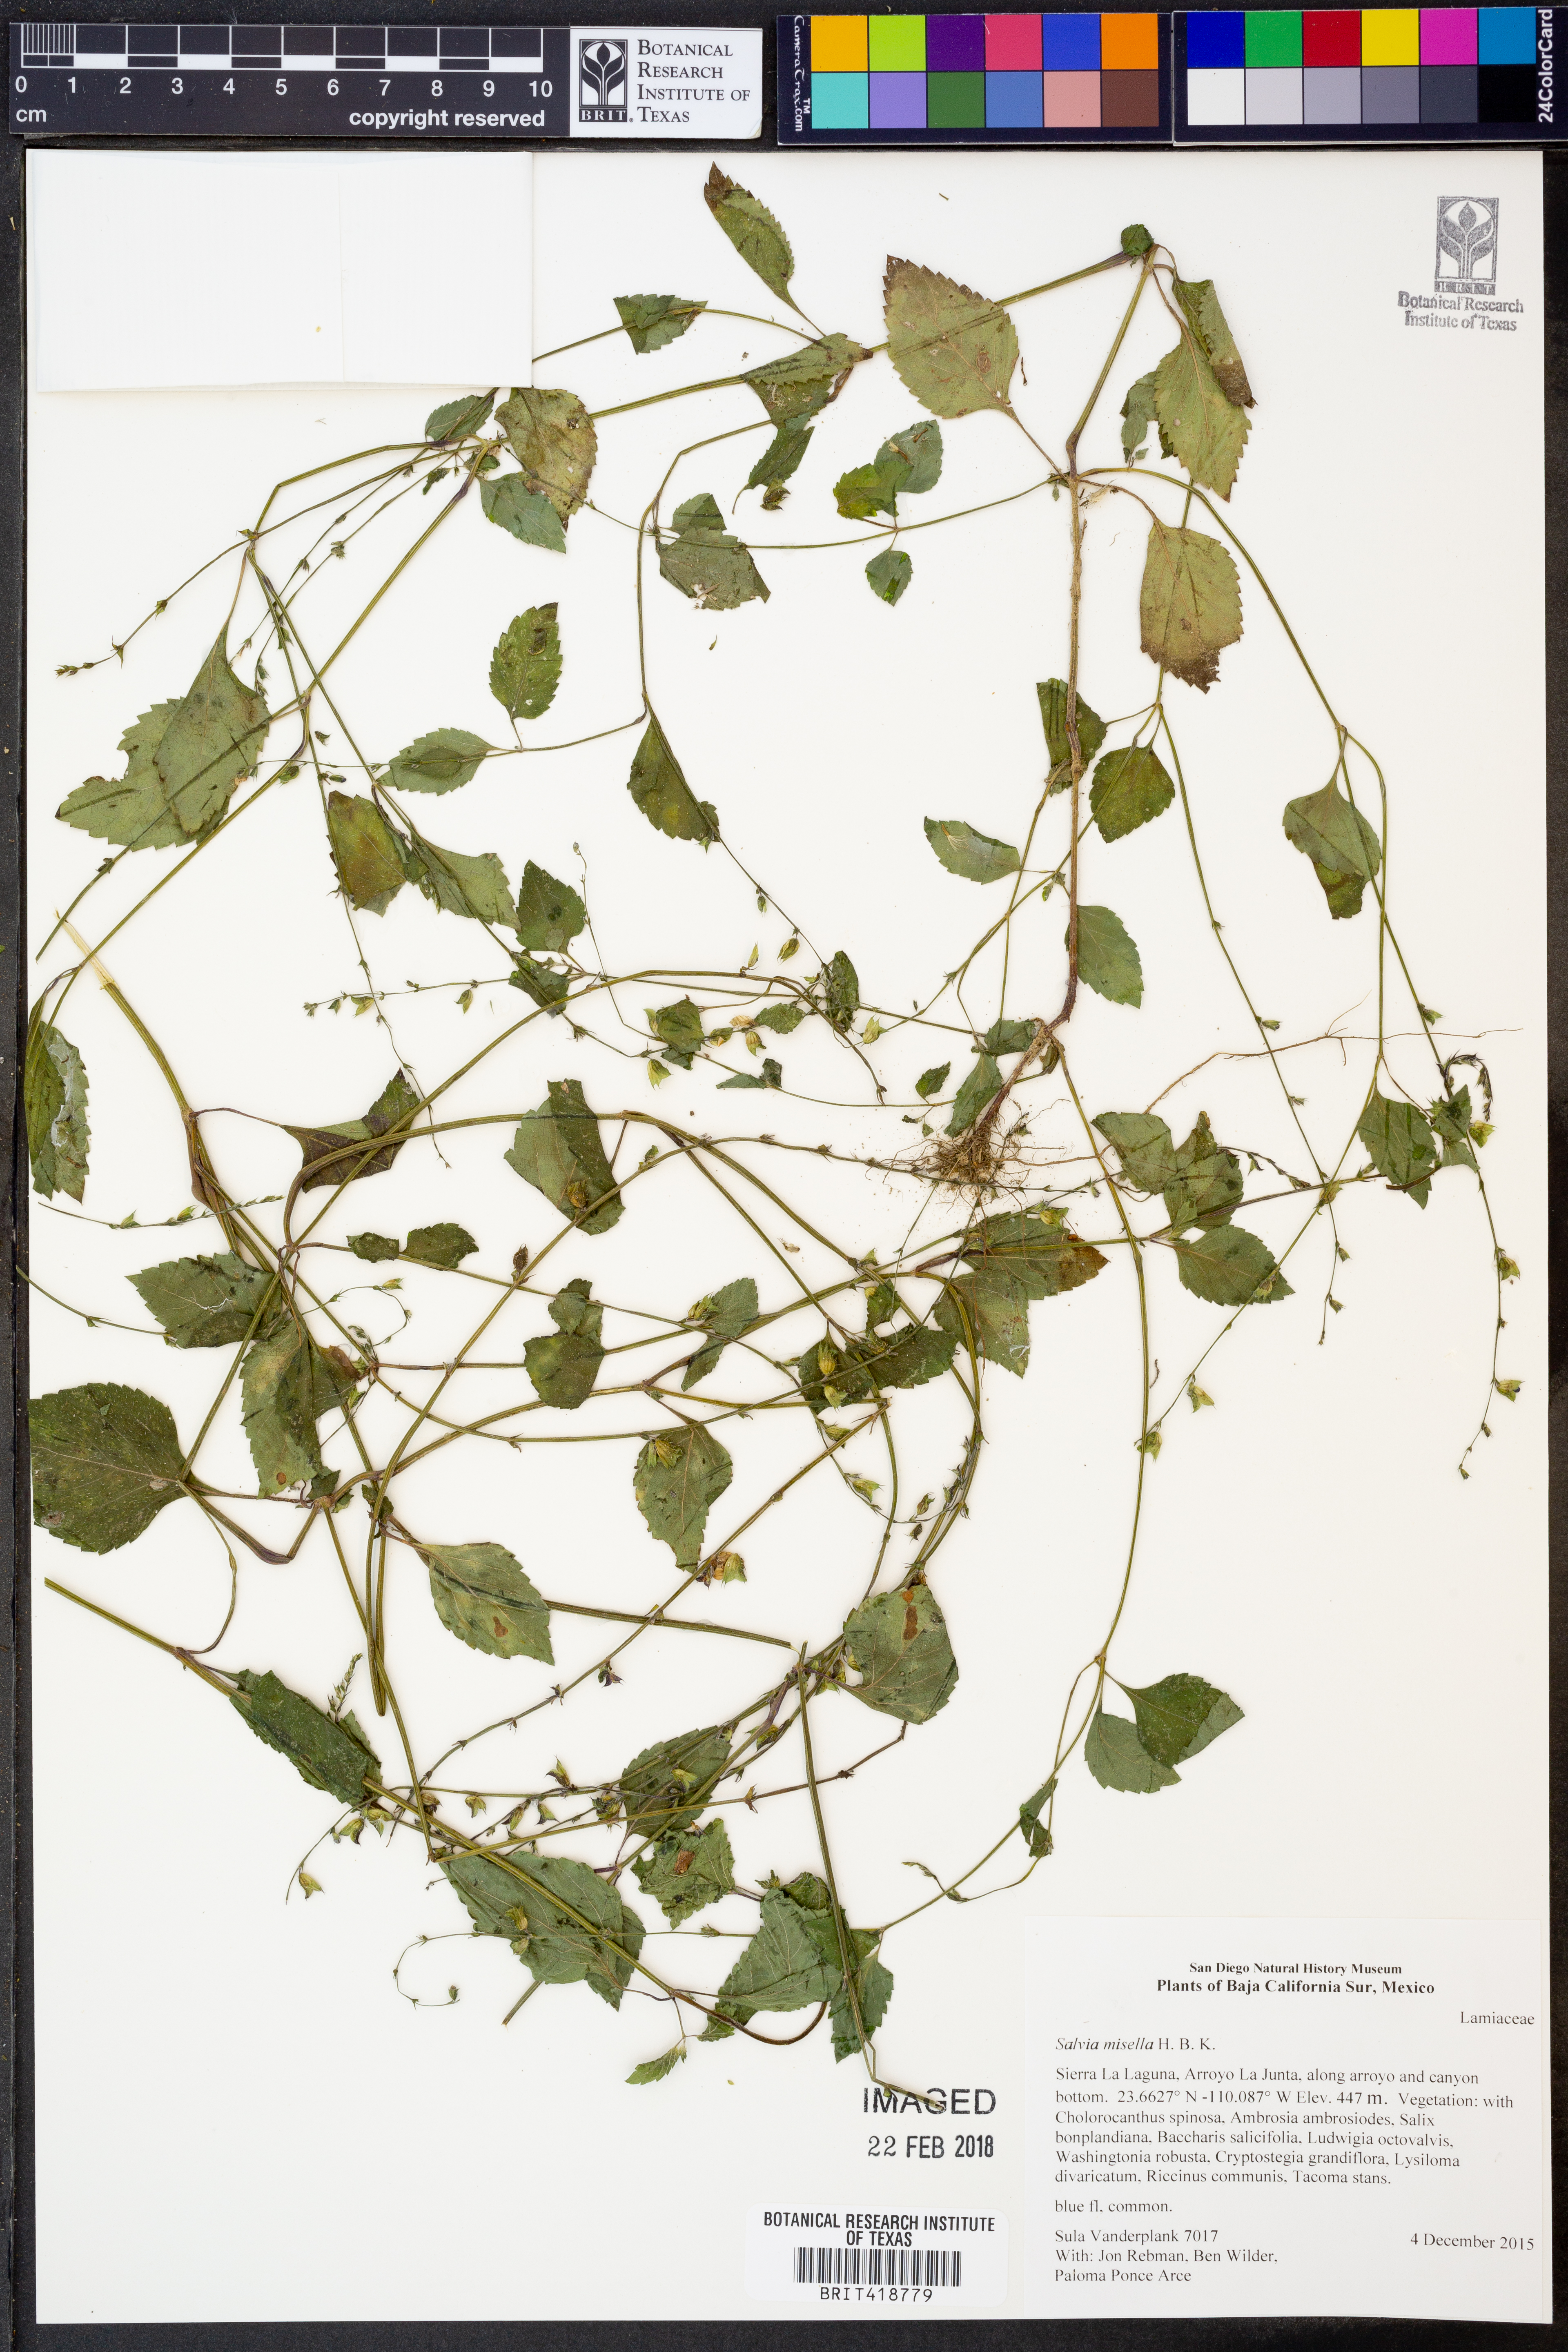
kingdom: Plantae
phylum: Tracheophyta
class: Magnoliopsida
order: Lamiales
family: Lamiaceae
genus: Salvia
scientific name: Salvia misella
